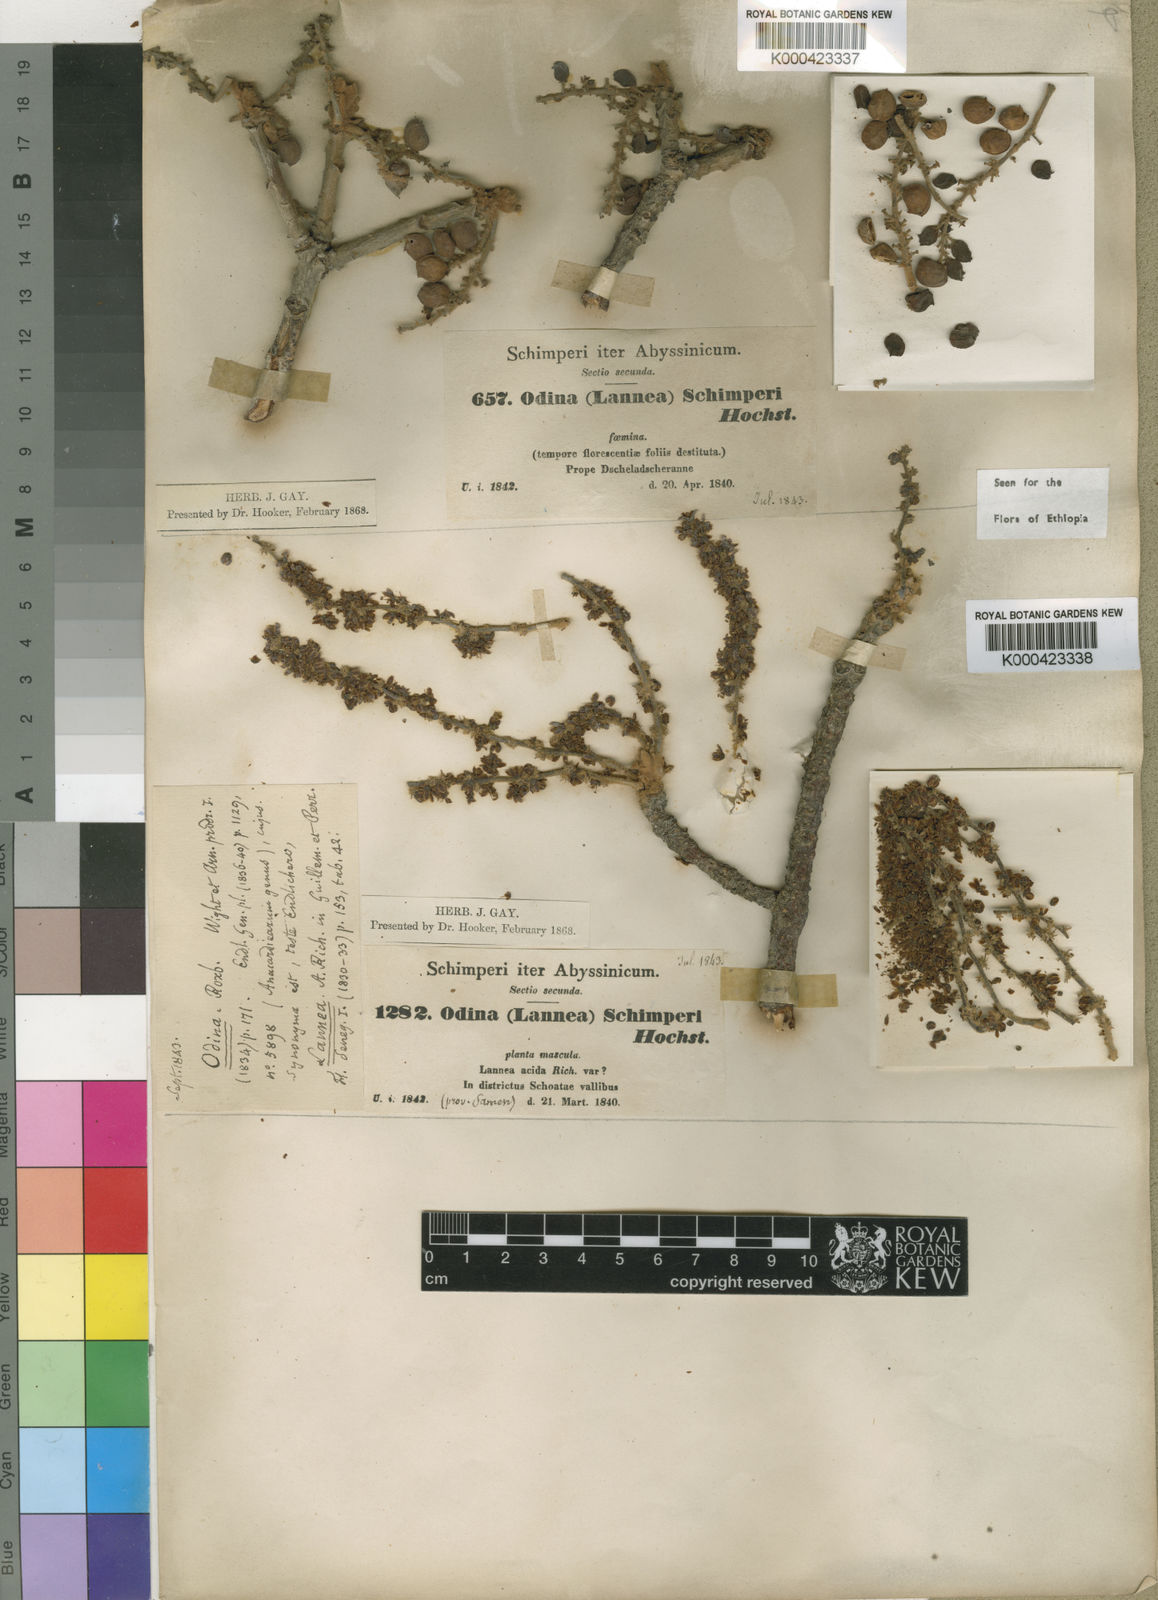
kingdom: Plantae
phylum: Tracheophyta
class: Magnoliopsida
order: Sapindales
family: Anacardiaceae
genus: Lannea
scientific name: Lannea schimperi
